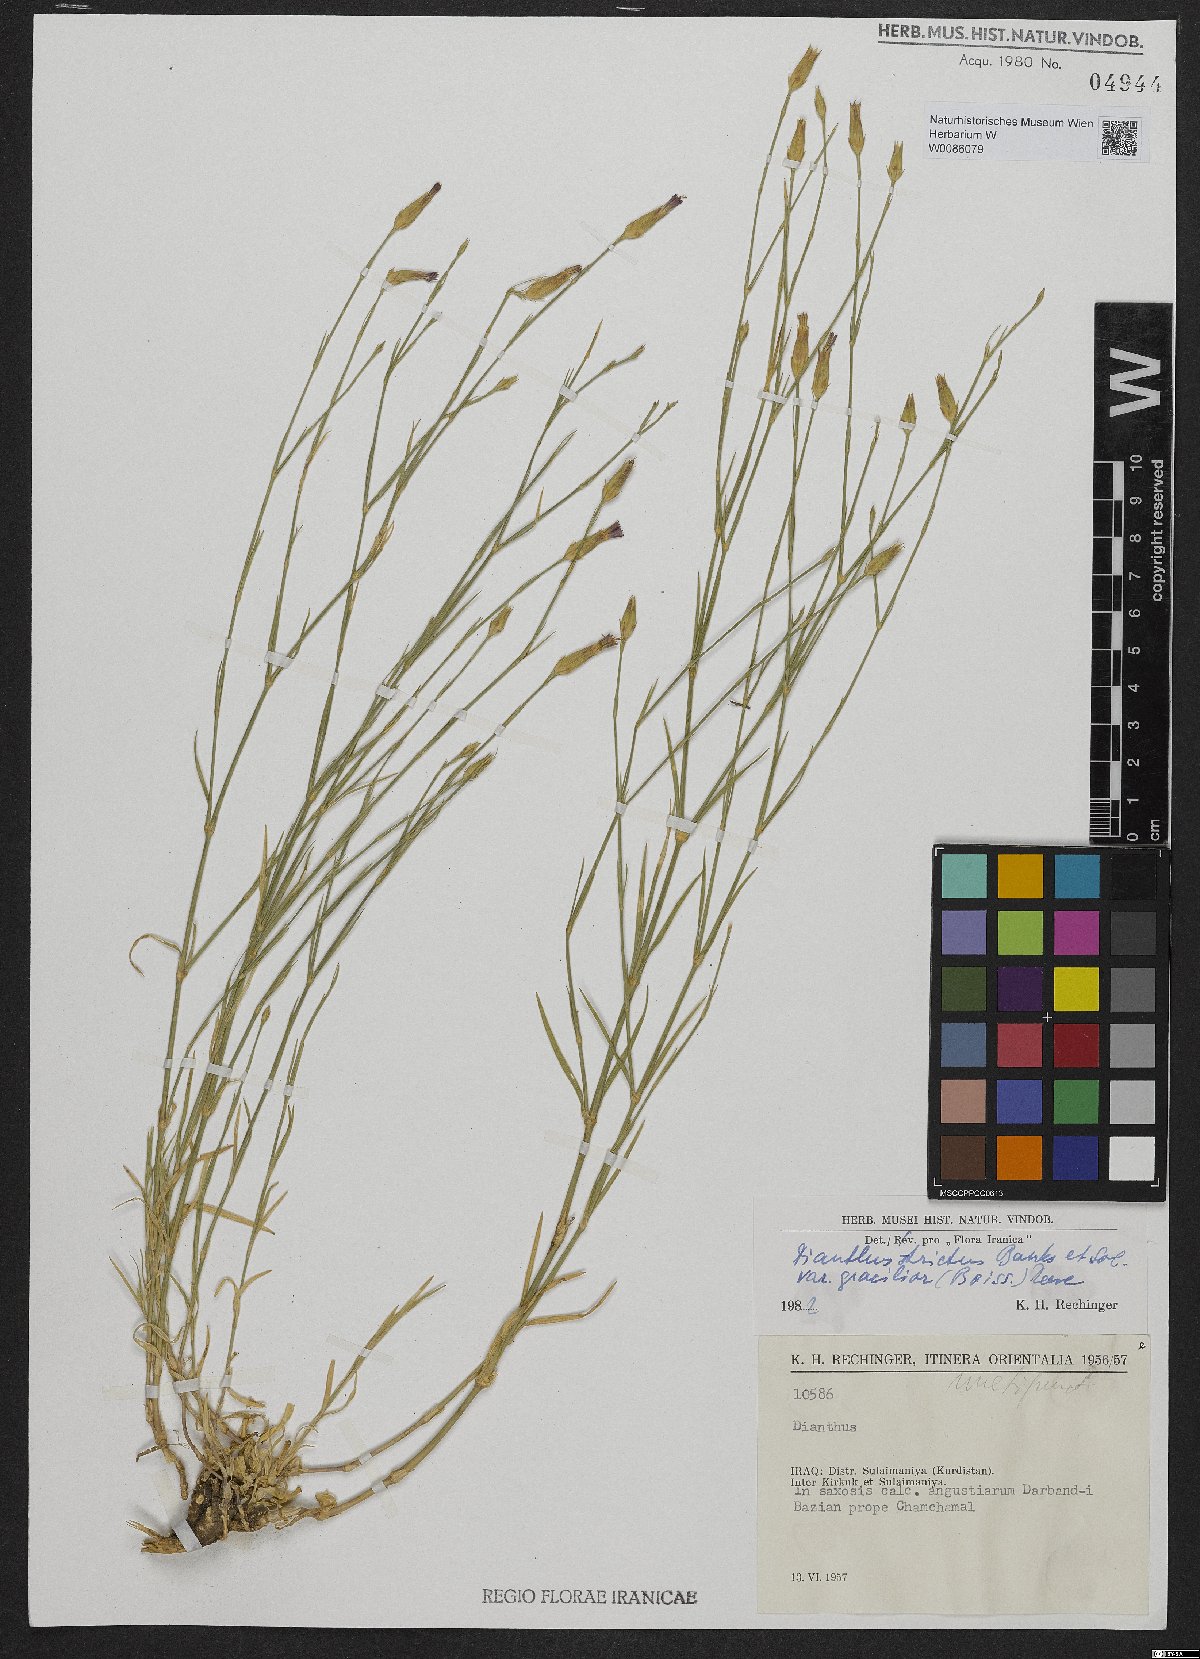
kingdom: Plantae
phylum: Tracheophyta
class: Magnoliopsida
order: Caryophyllales
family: Caryophyllaceae
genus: Dianthus
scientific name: Dianthus strictus
